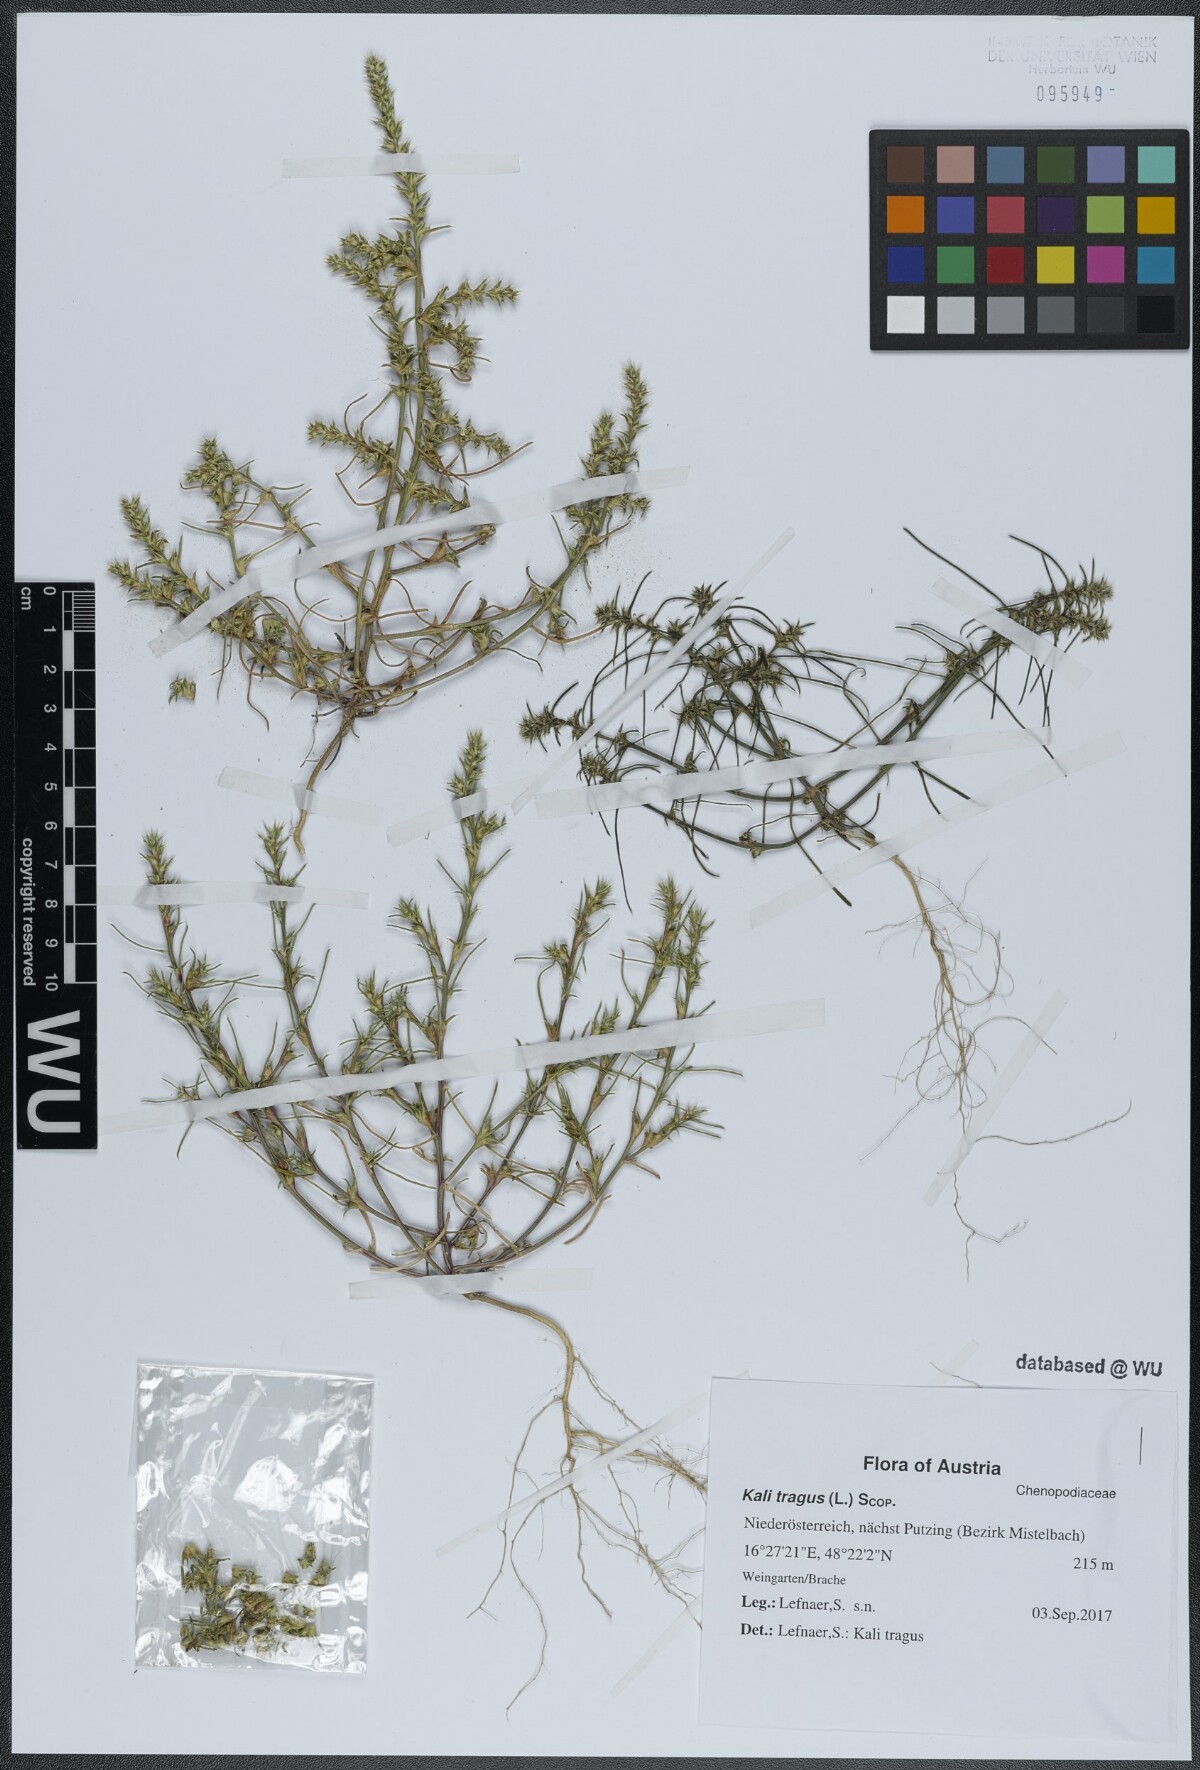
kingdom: Plantae
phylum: Tracheophyta
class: Magnoliopsida
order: Caryophyllales
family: Amaranthaceae
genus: Salsola
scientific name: Salsola tragus
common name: Prickly russian thistle
